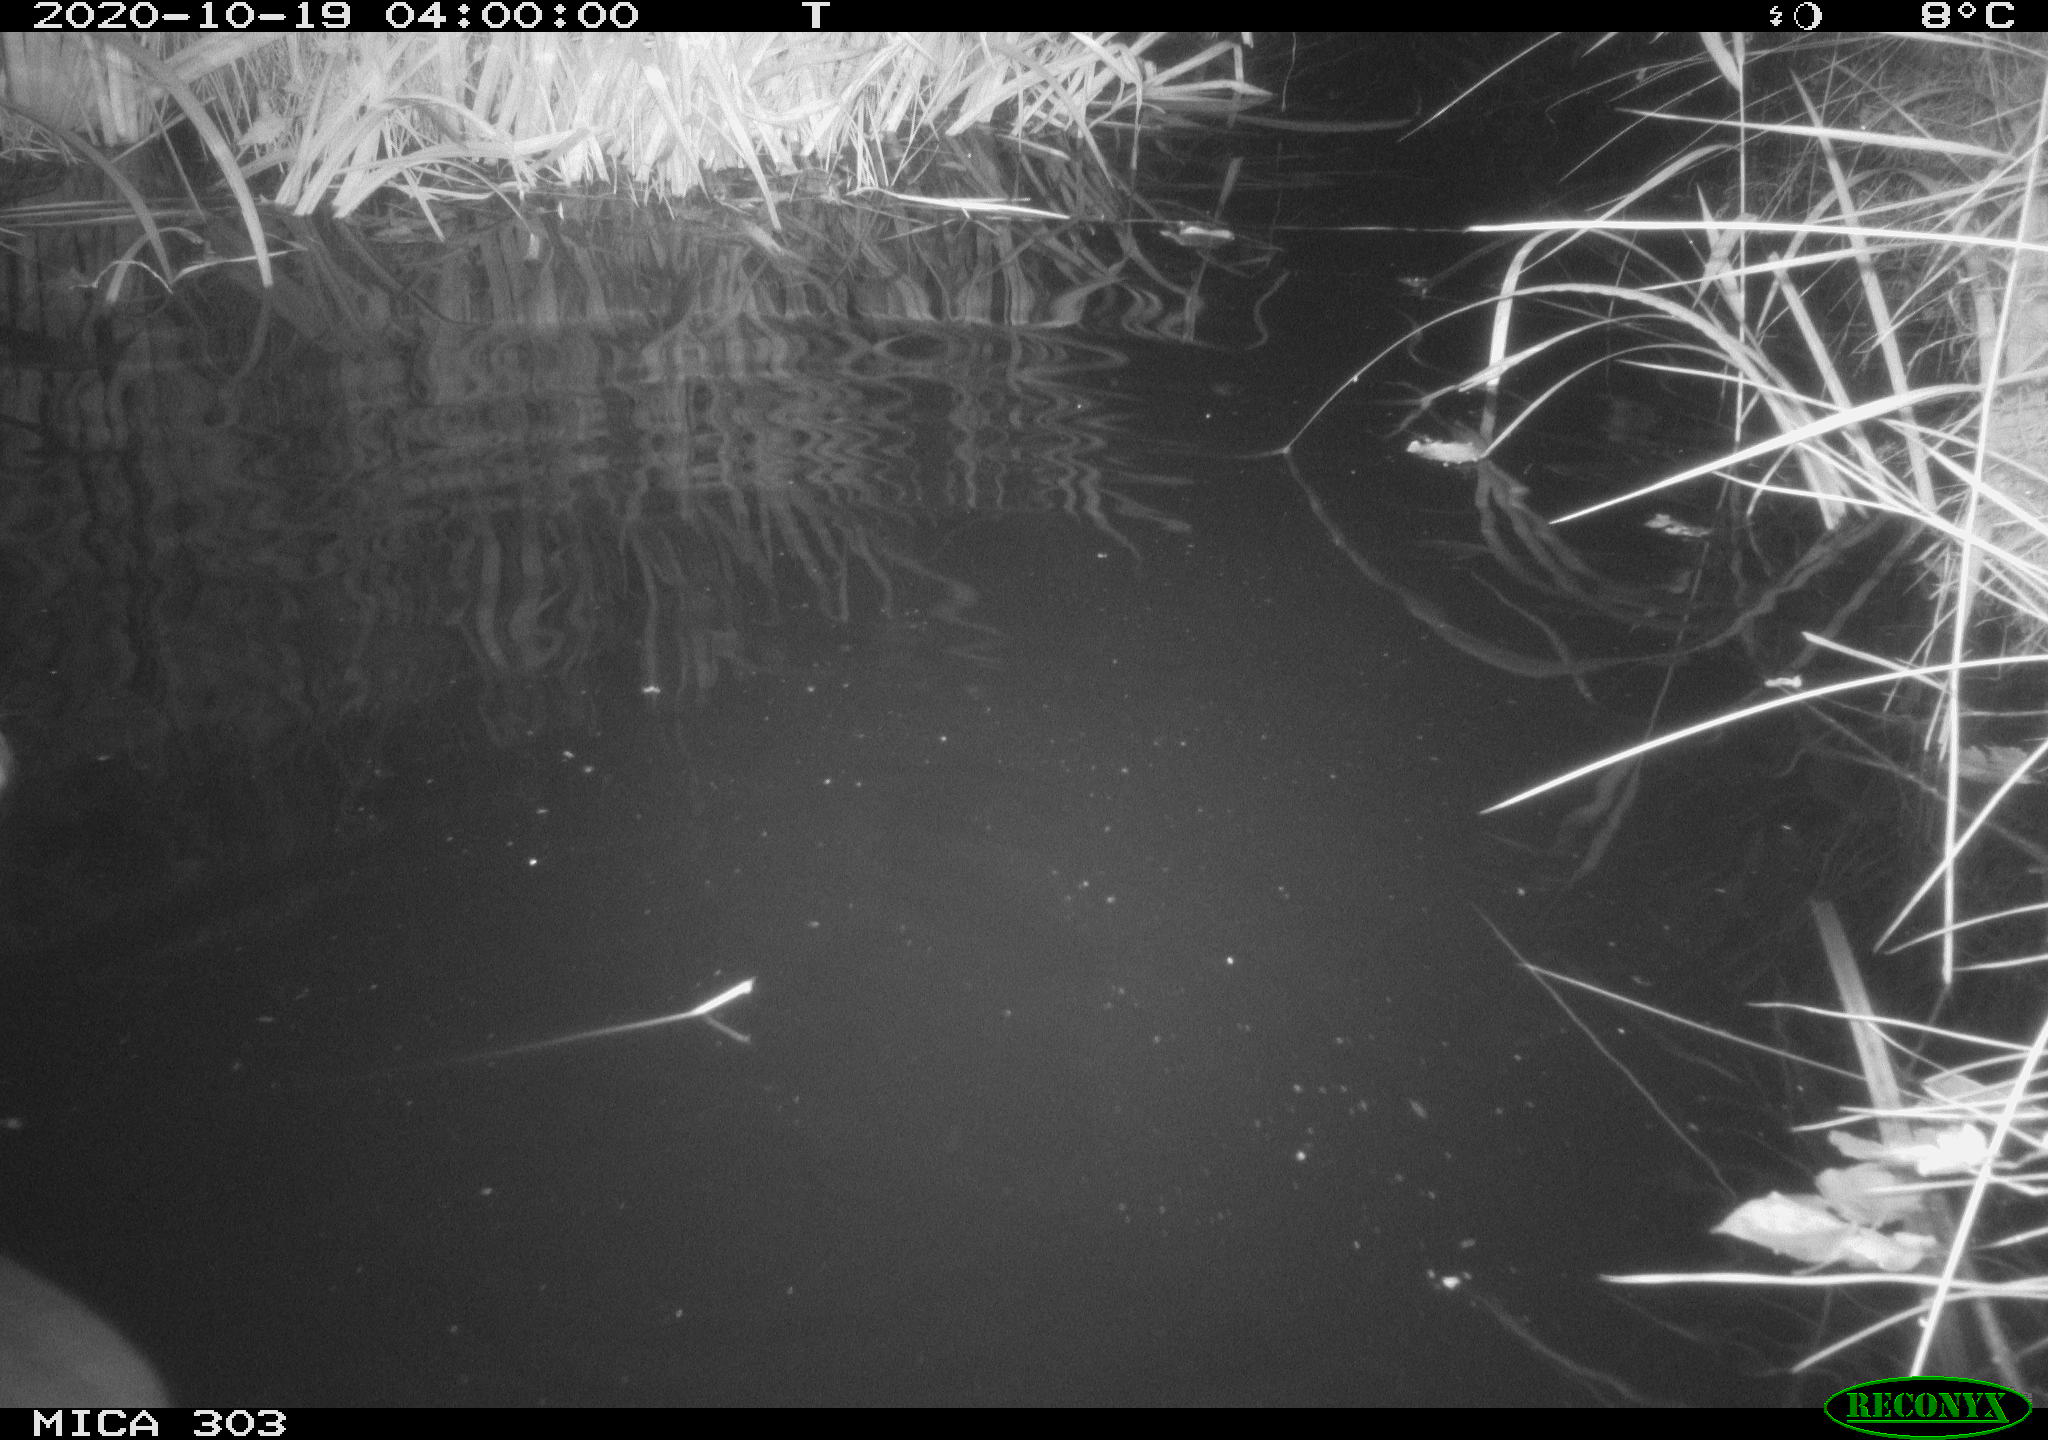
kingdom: Animalia
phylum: Chordata
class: Mammalia
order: Rodentia
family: Castoridae
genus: Castor
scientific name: Castor fiber
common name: Eurasian beaver
